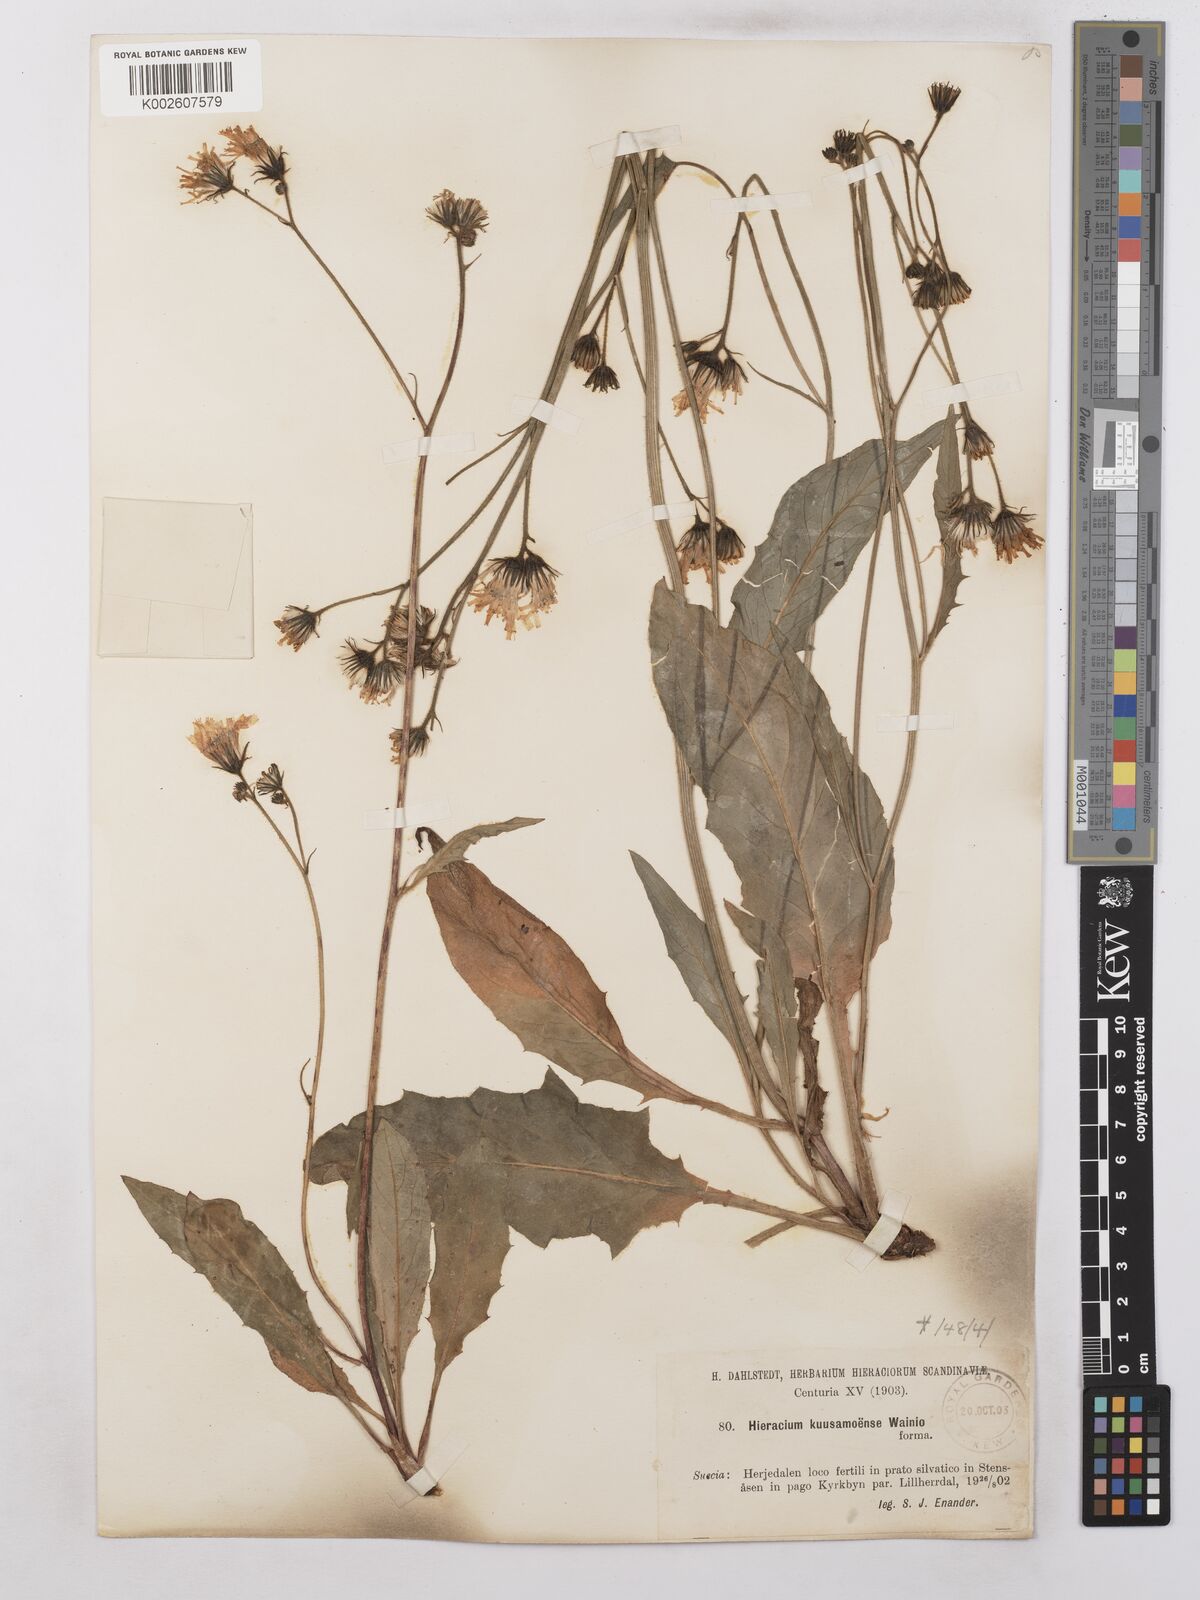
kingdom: Plantae
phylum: Tracheophyta
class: Magnoliopsida
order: Asterales
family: Asteraceae
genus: Hieracium
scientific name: Hieracium subramosum
